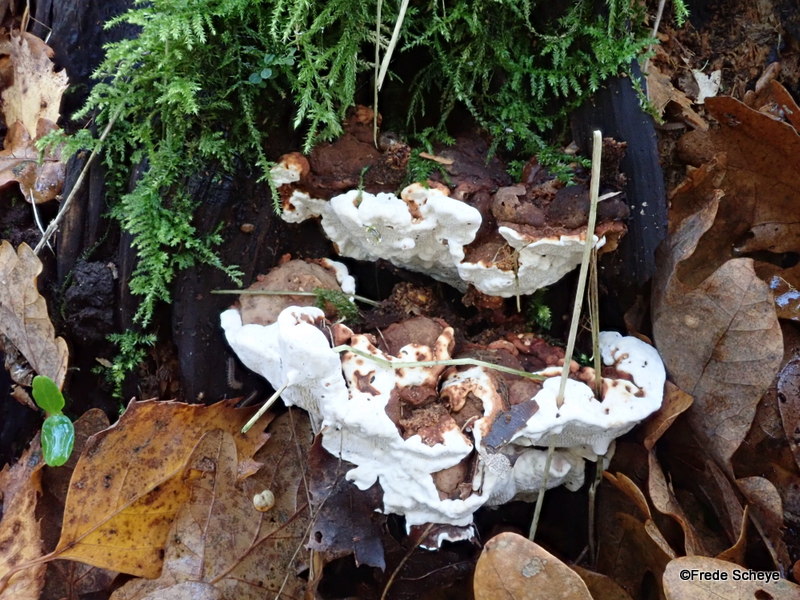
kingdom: Fungi
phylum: Basidiomycota
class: Agaricomycetes
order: Russulales
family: Bondarzewiaceae
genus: Heterobasidion
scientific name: Heterobasidion annosum
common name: almindelig rodfordærver
